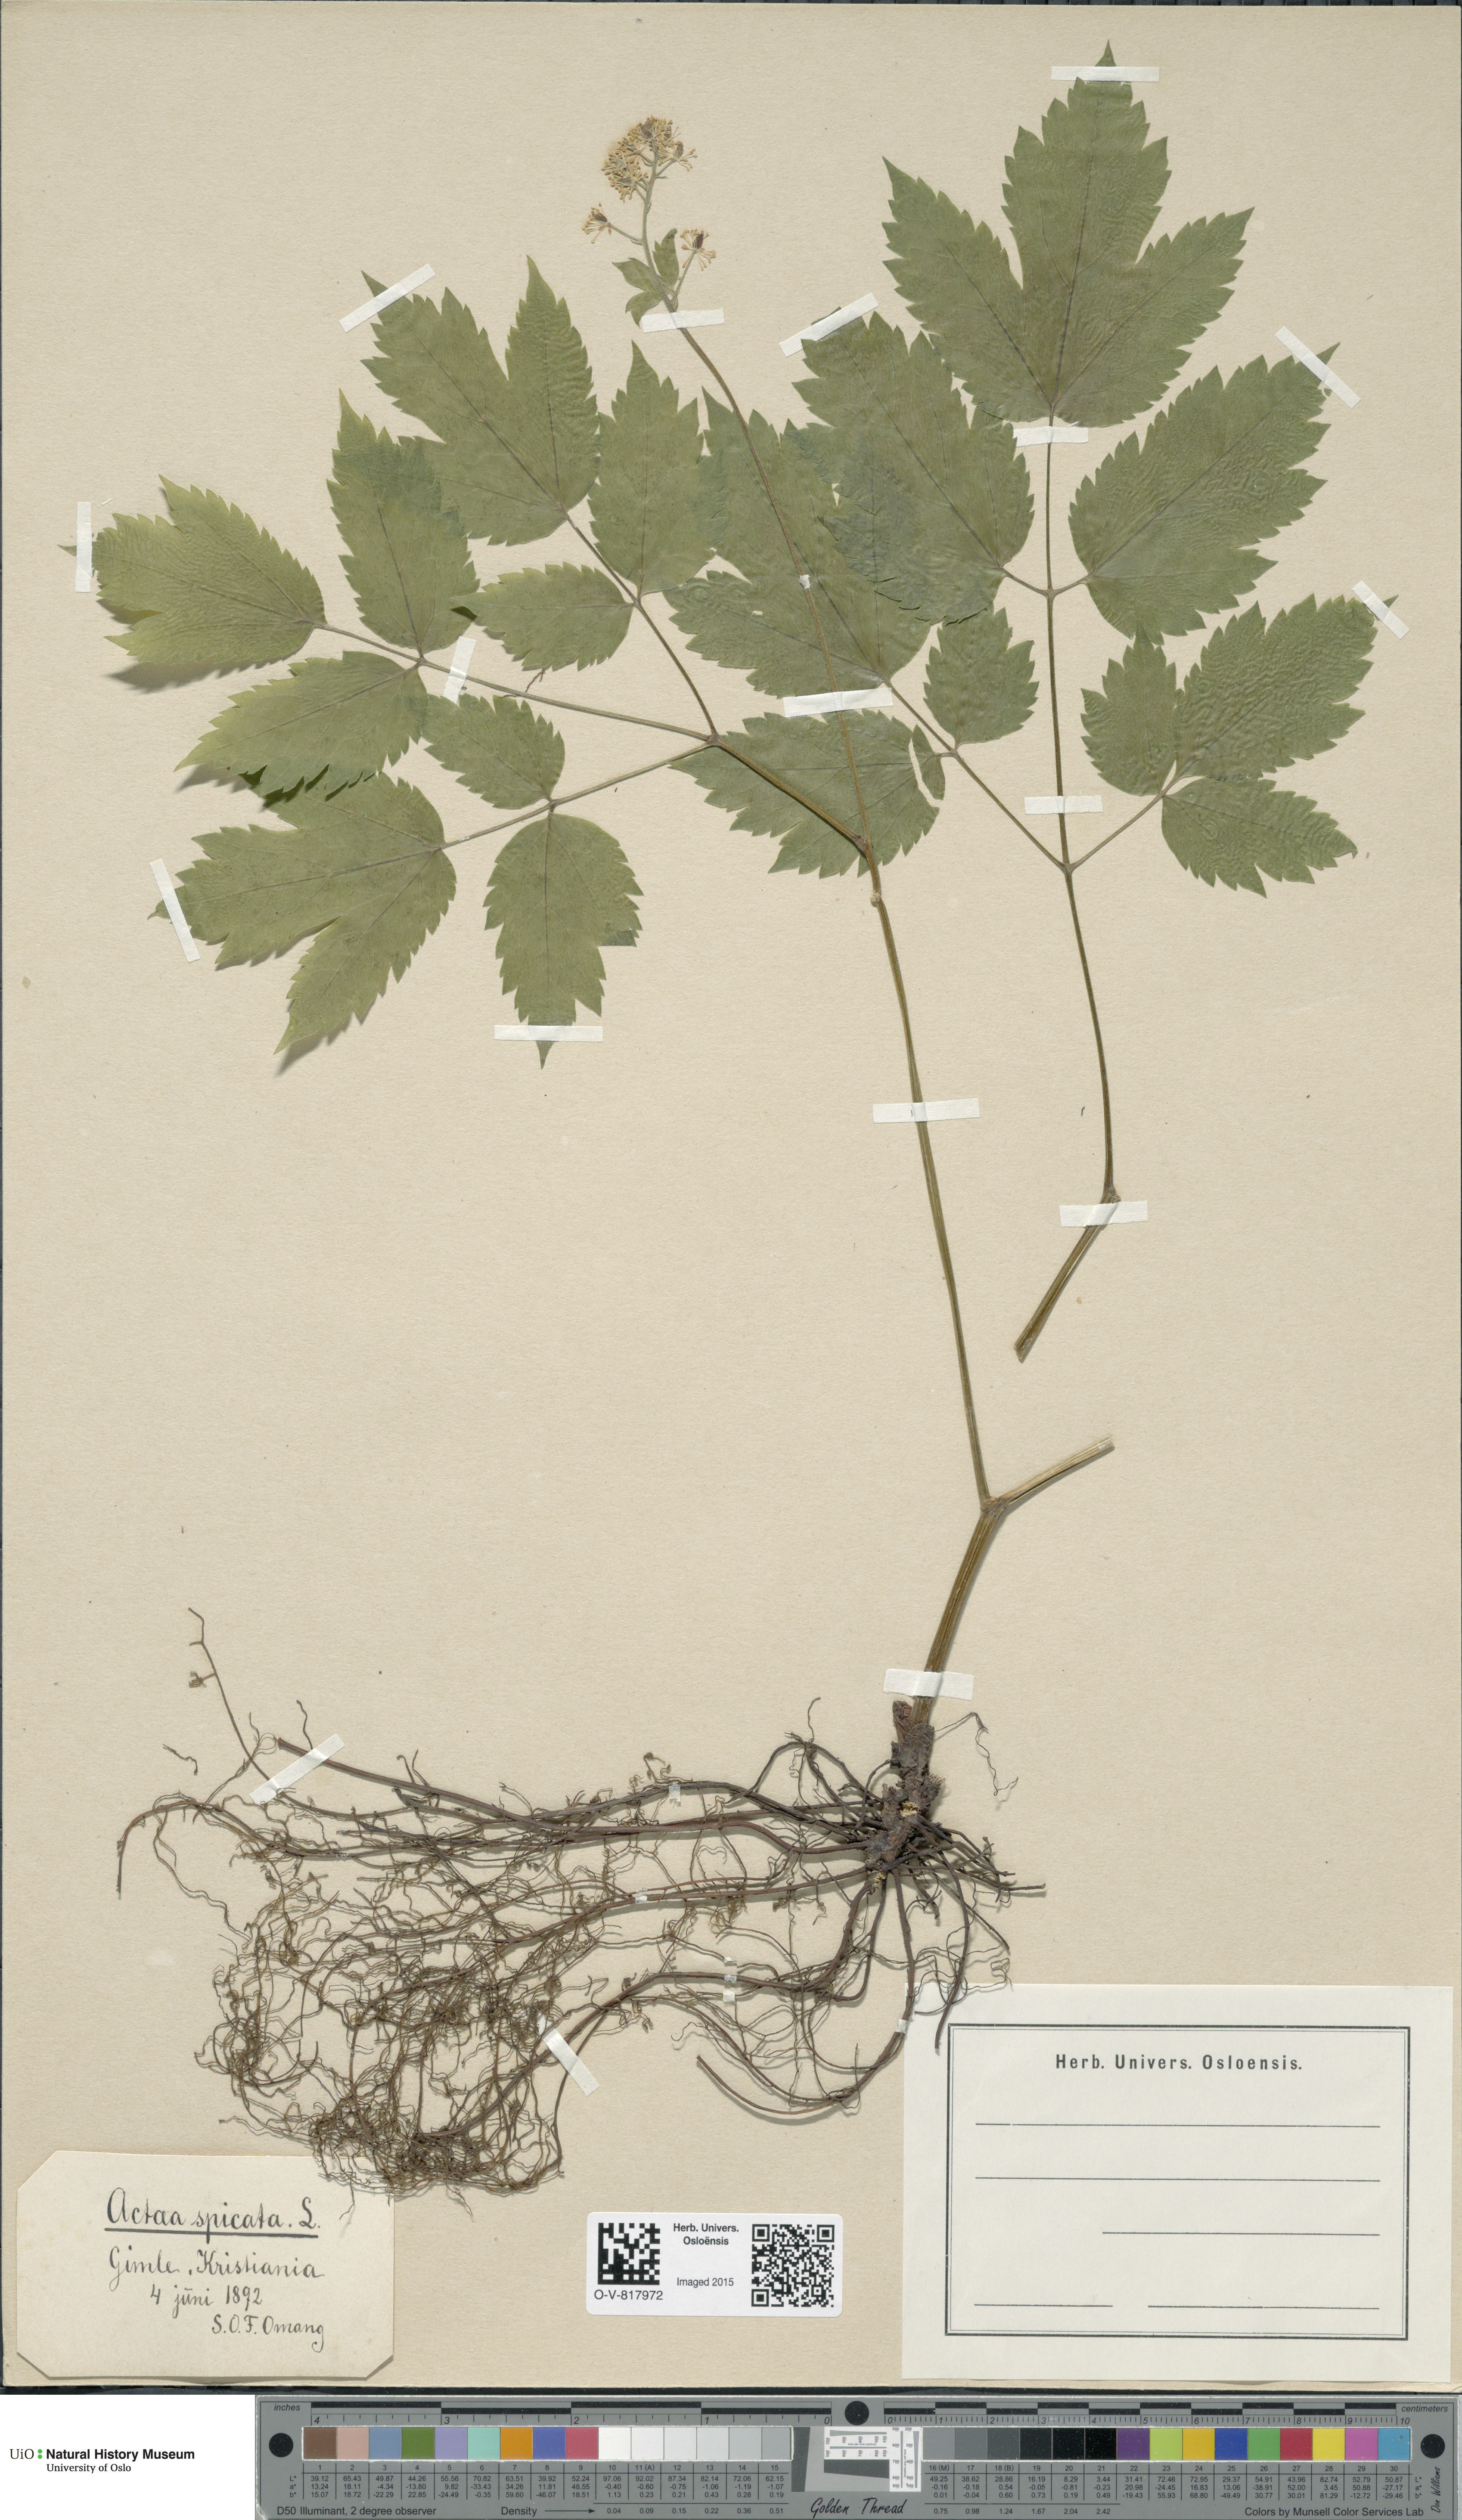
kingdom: Plantae
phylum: Tracheophyta
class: Magnoliopsida
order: Ranunculales
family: Ranunculaceae
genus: Actaea
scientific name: Actaea spicata
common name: Baneberry
